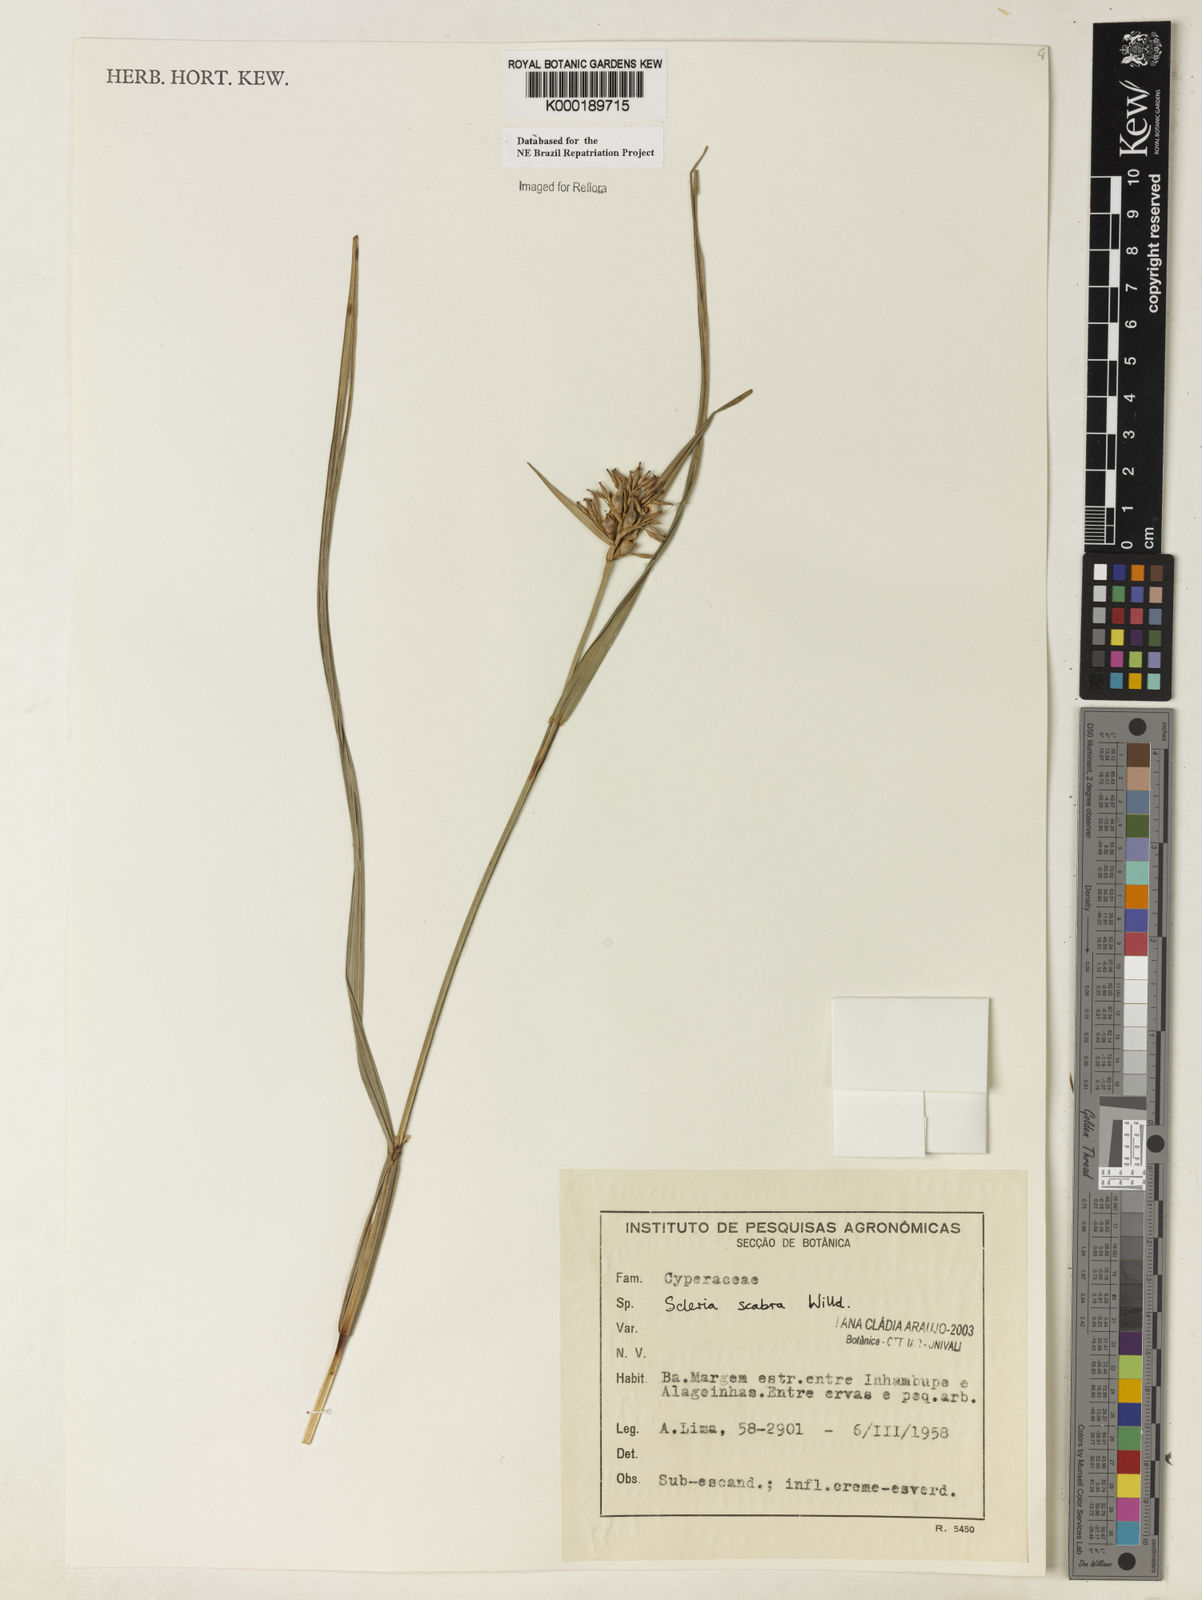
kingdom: Plantae
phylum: Tracheophyta
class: Liliopsida
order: Poales
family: Cyperaceae
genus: Scleria
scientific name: Scleria scabra
